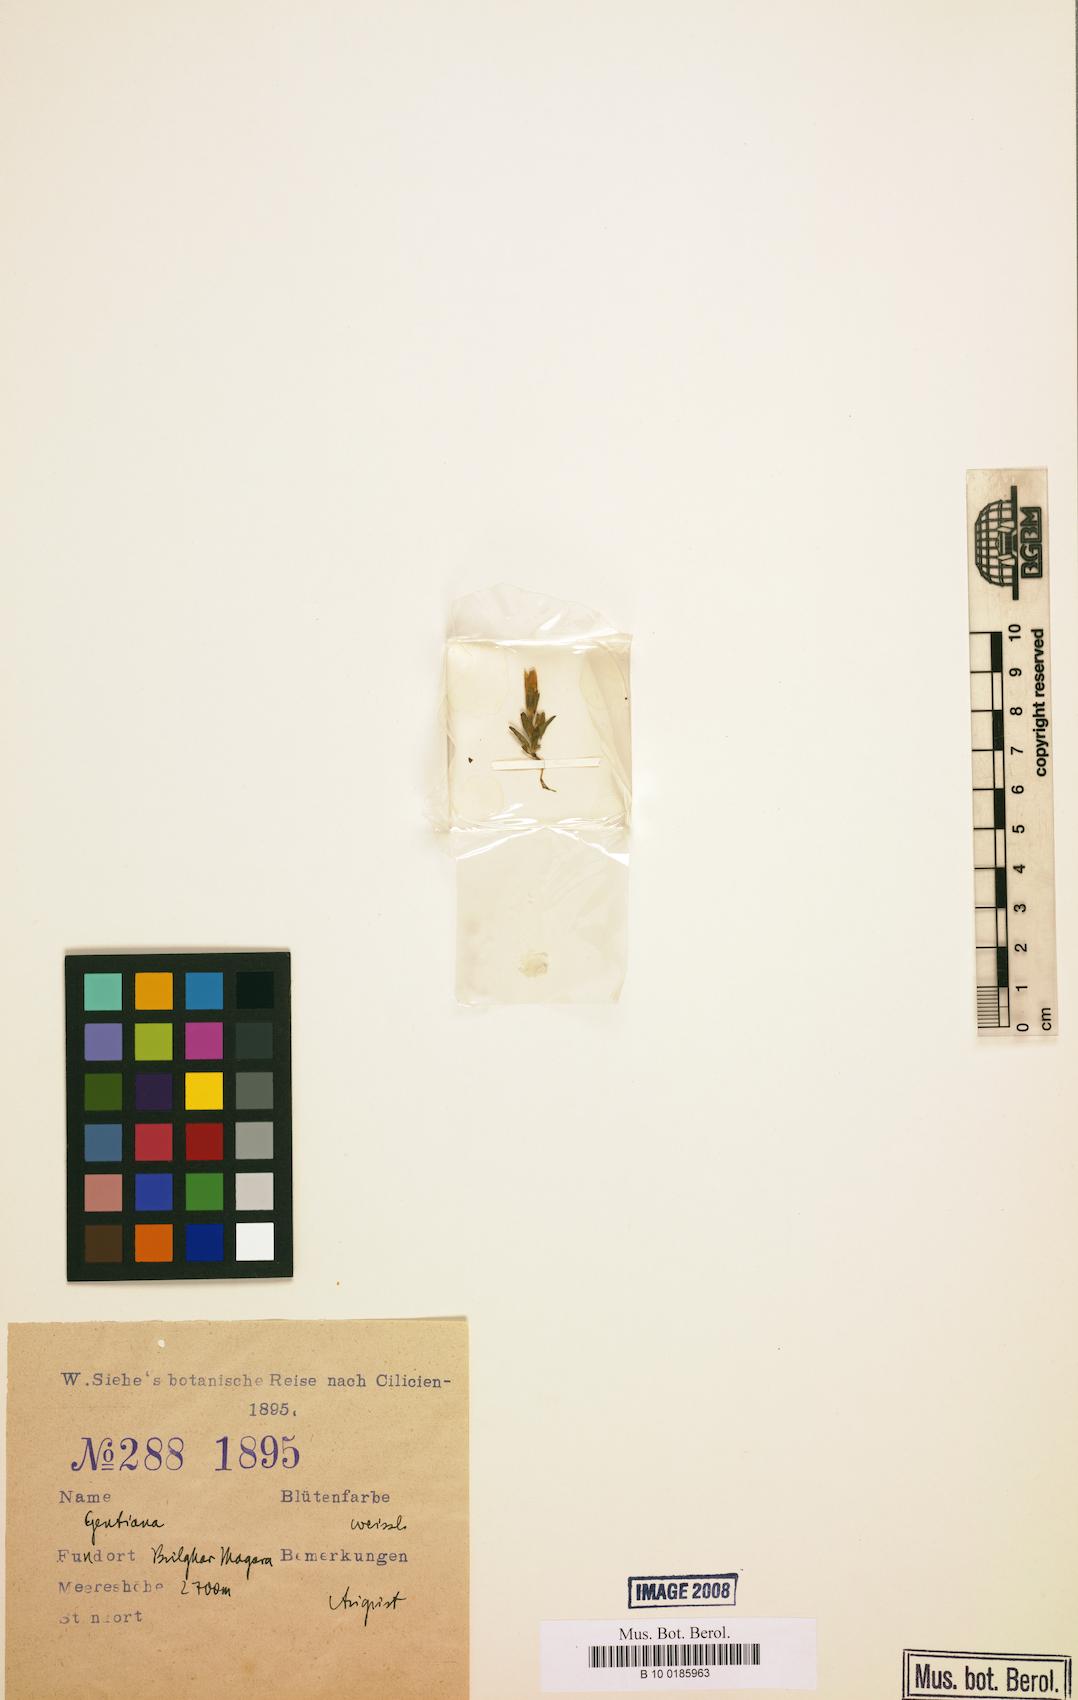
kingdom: Plantae
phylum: Tracheophyta
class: Magnoliopsida
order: Gentianales
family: Gentianaceae
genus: Gentiana
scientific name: Gentiana
